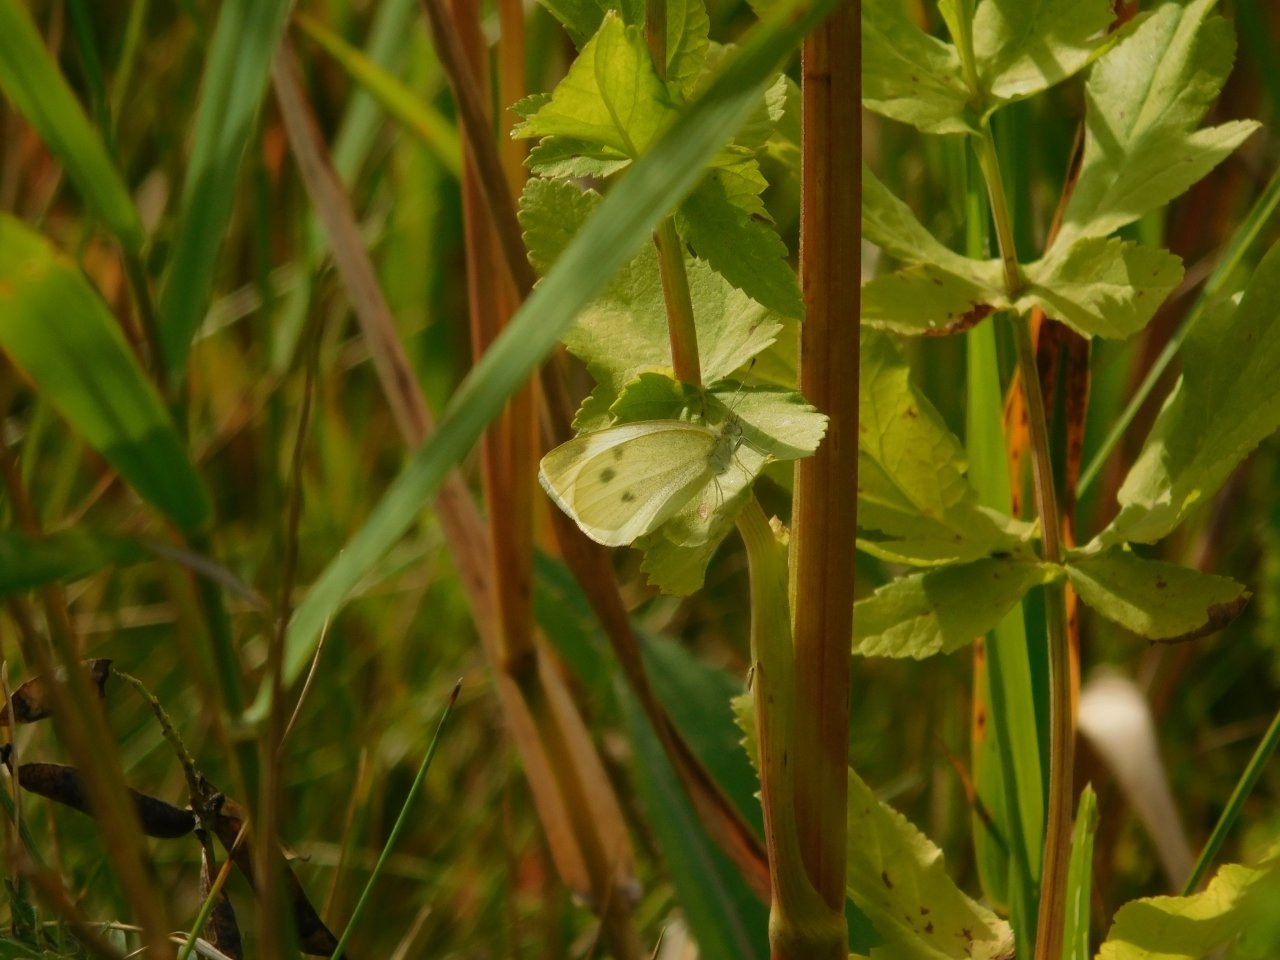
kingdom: Animalia
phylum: Arthropoda
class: Insecta
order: Lepidoptera
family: Pieridae
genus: Pieris
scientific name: Pieris rapae
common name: Cabbage White
